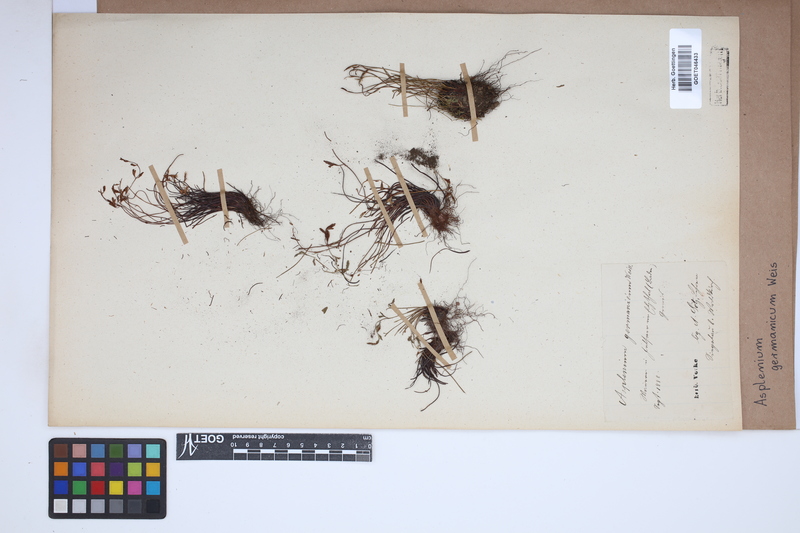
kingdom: Plantae
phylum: Tracheophyta
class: Polypodiopsida
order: Polypodiales
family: Aspleniaceae
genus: Asplenium
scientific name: Asplenium
